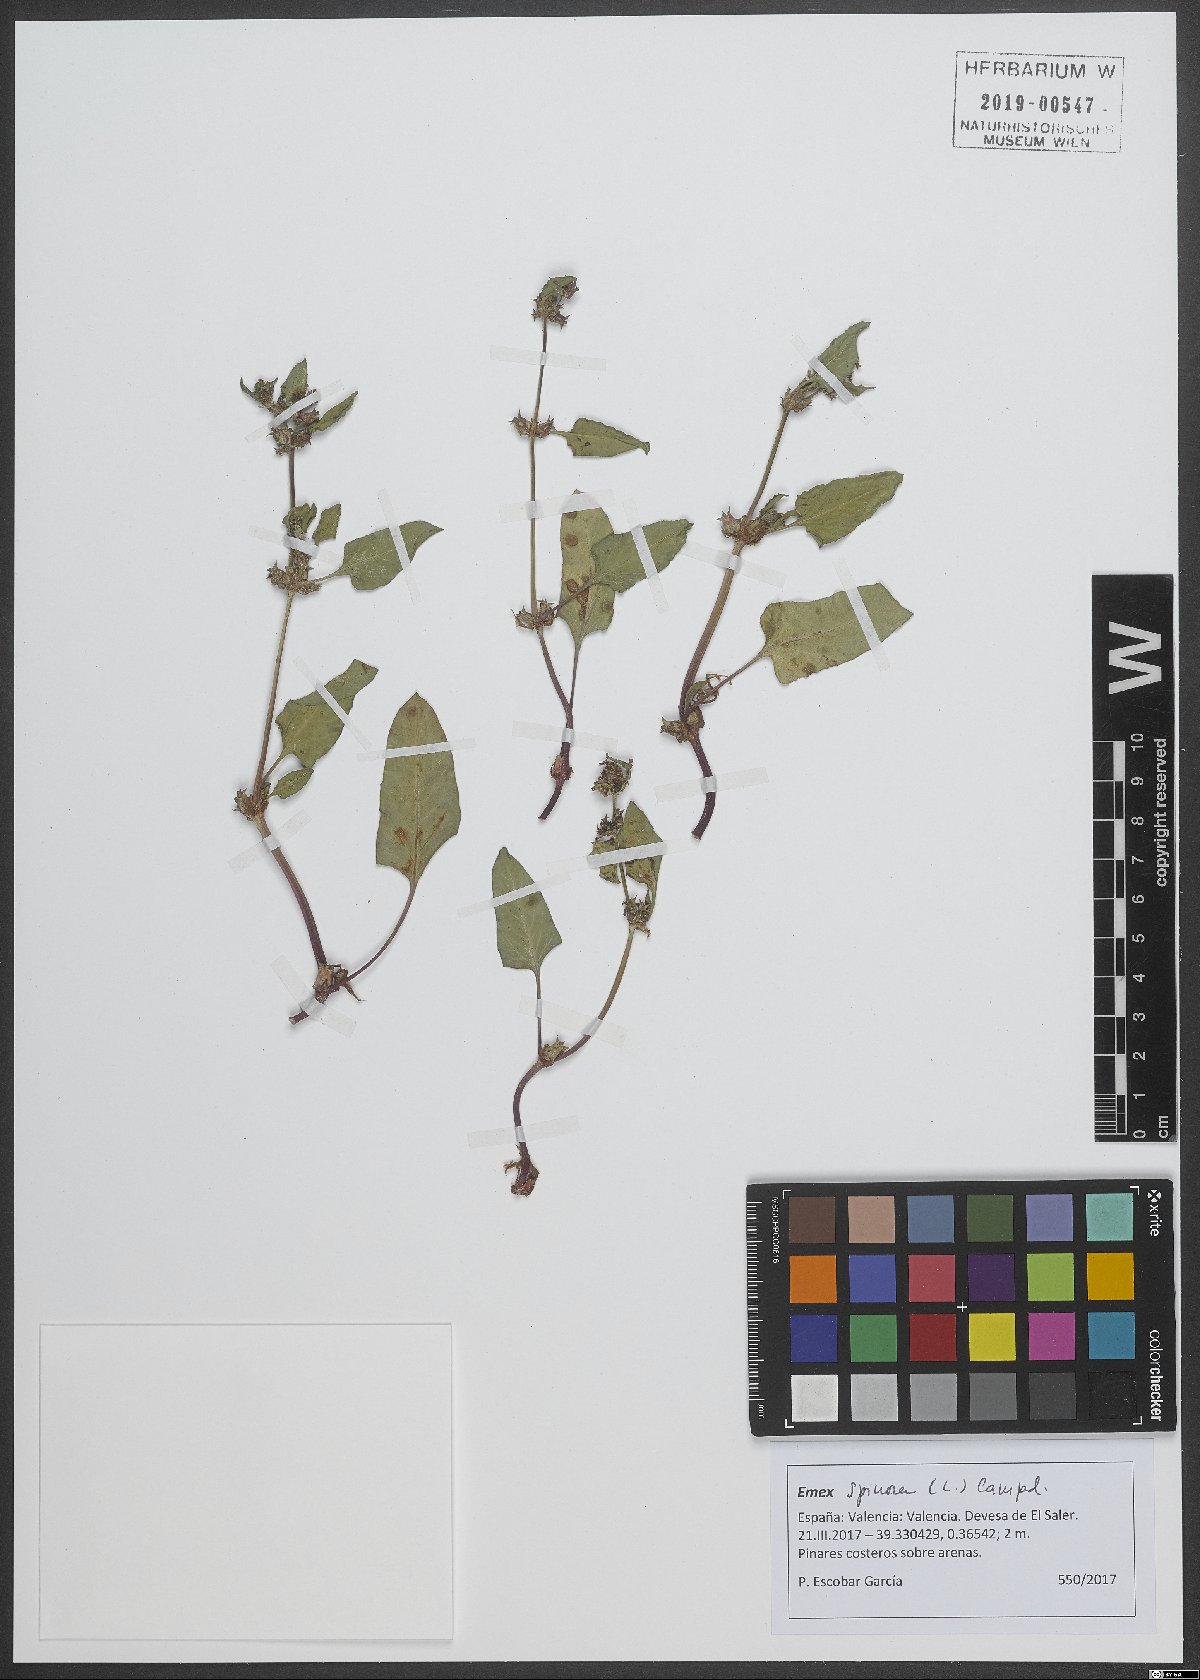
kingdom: Plantae
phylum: Tracheophyta
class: Magnoliopsida
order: Caryophyllales
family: Polygonaceae
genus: Rumex
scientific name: Rumex spinosus
